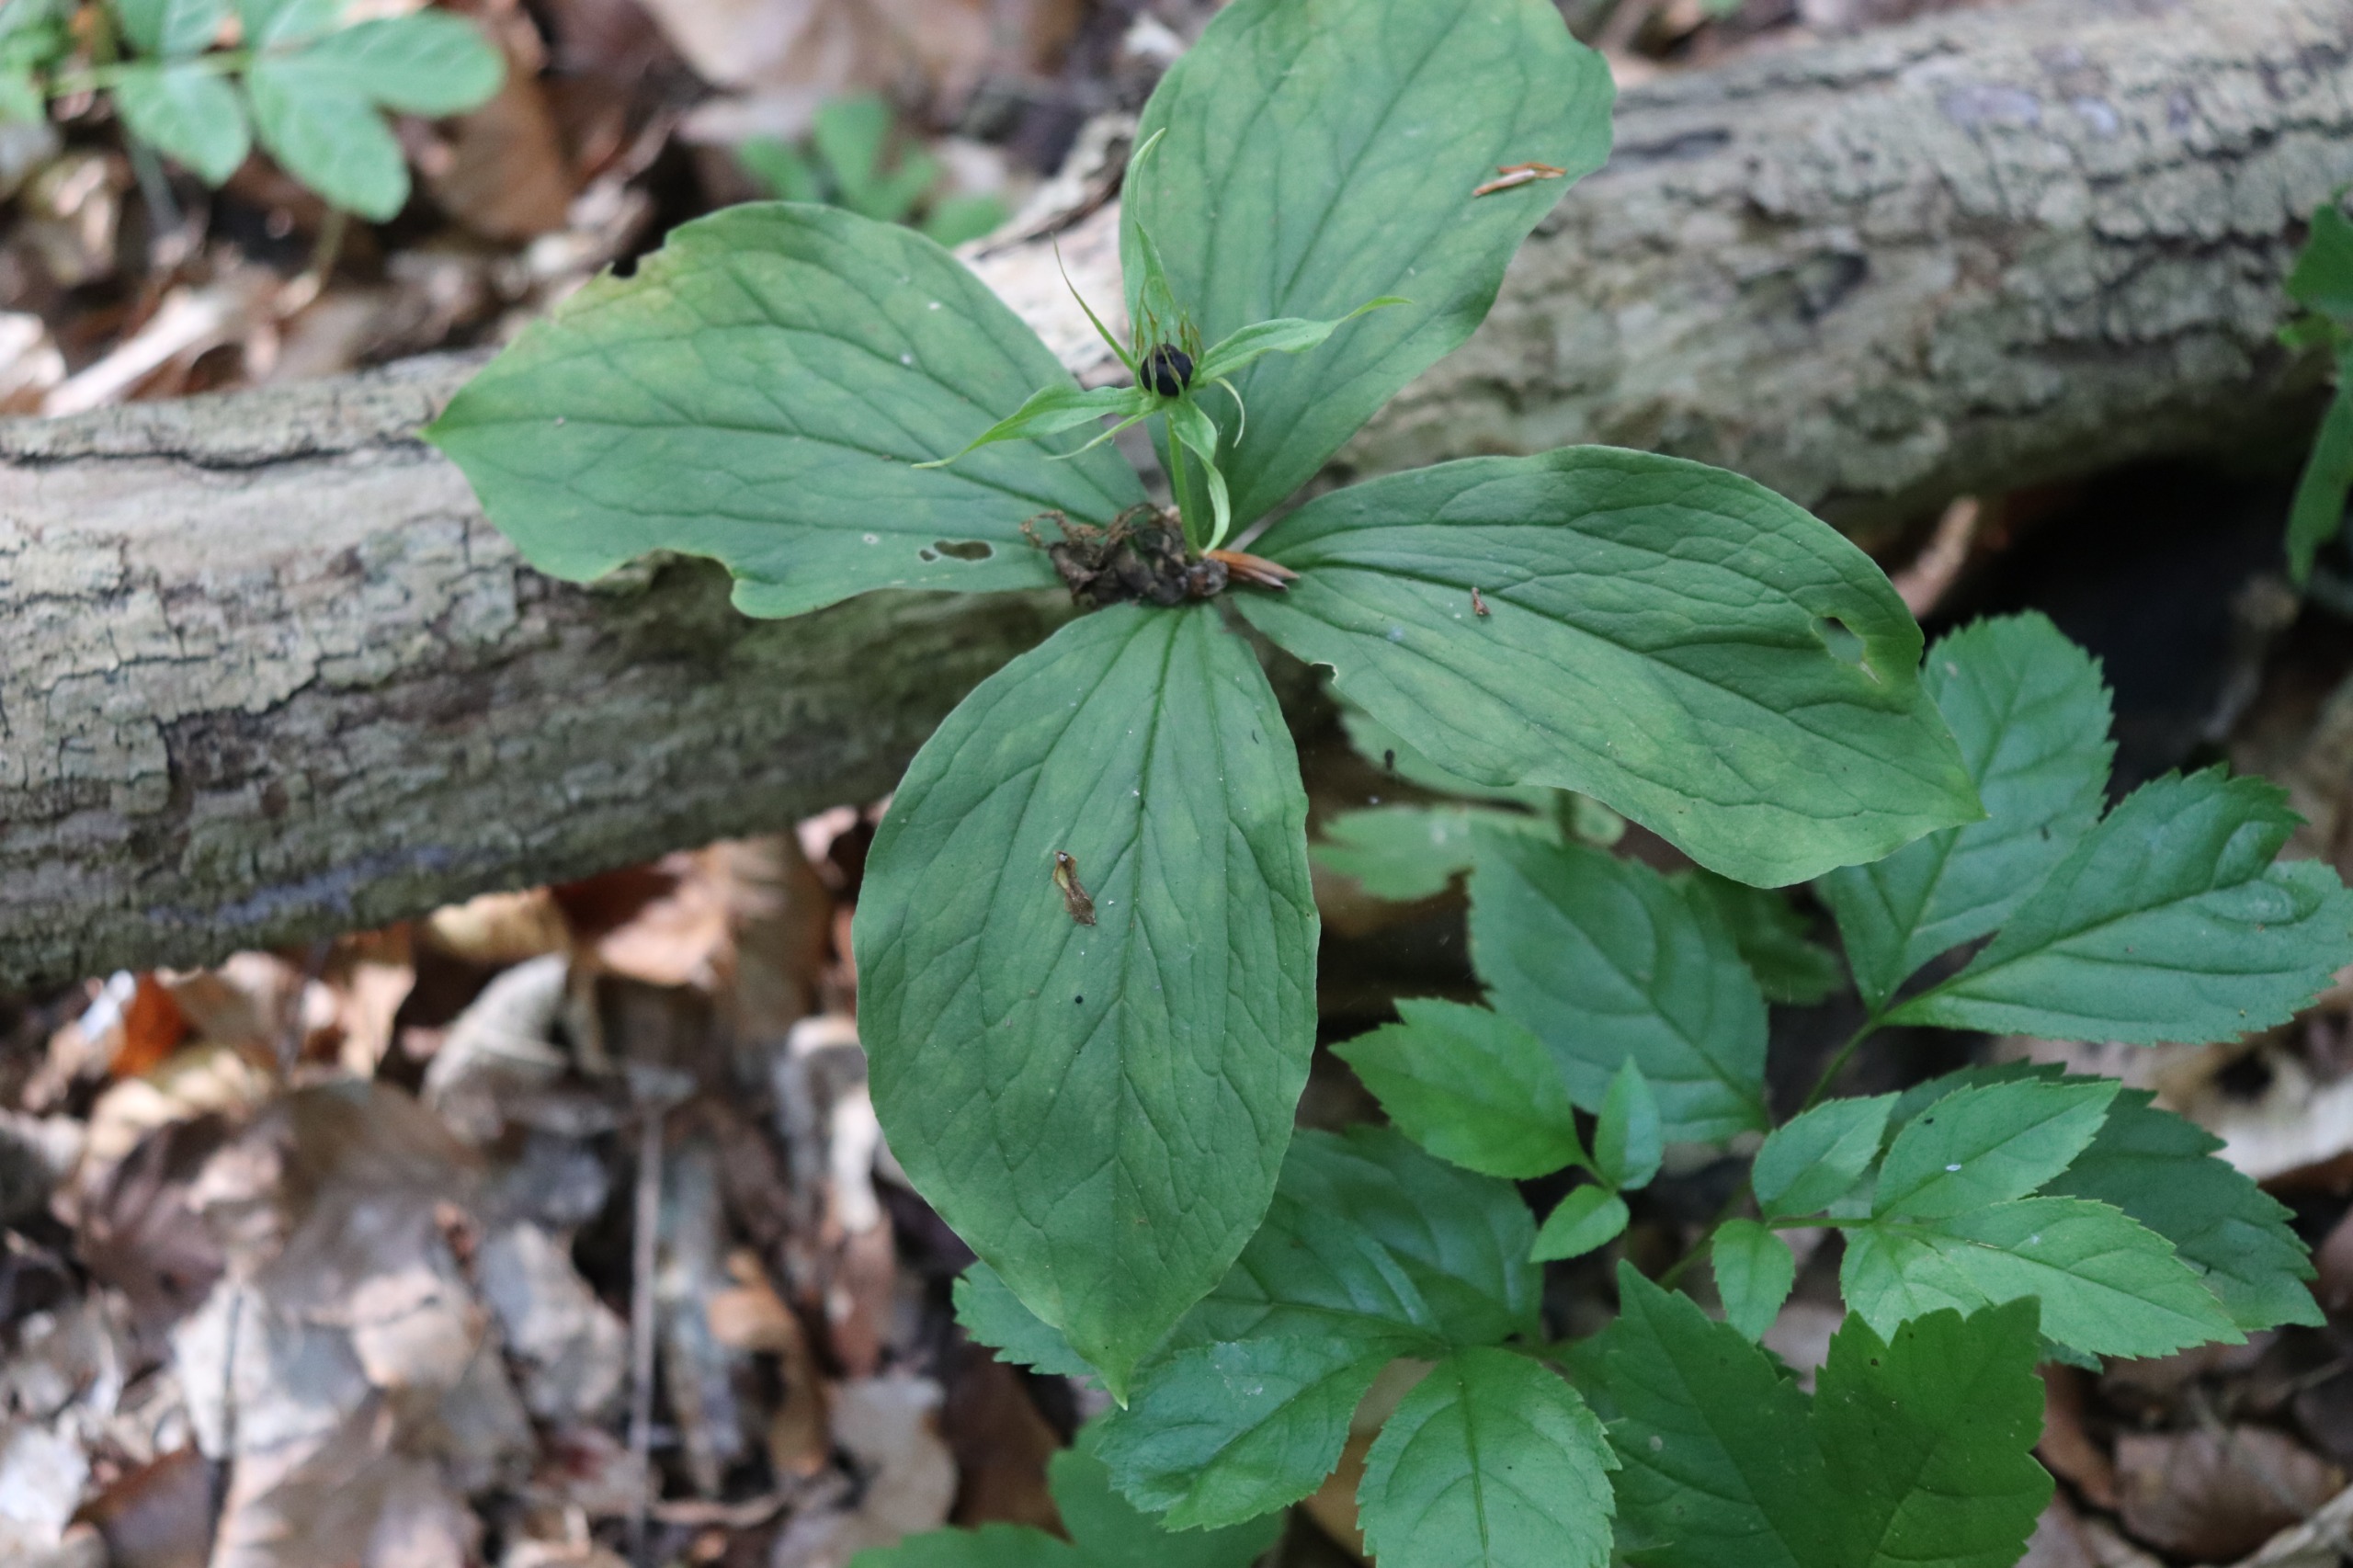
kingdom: Plantae
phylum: Tracheophyta
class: Liliopsida
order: Liliales
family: Melanthiaceae
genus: Paris
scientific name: Paris quadrifolia
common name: Firblad
